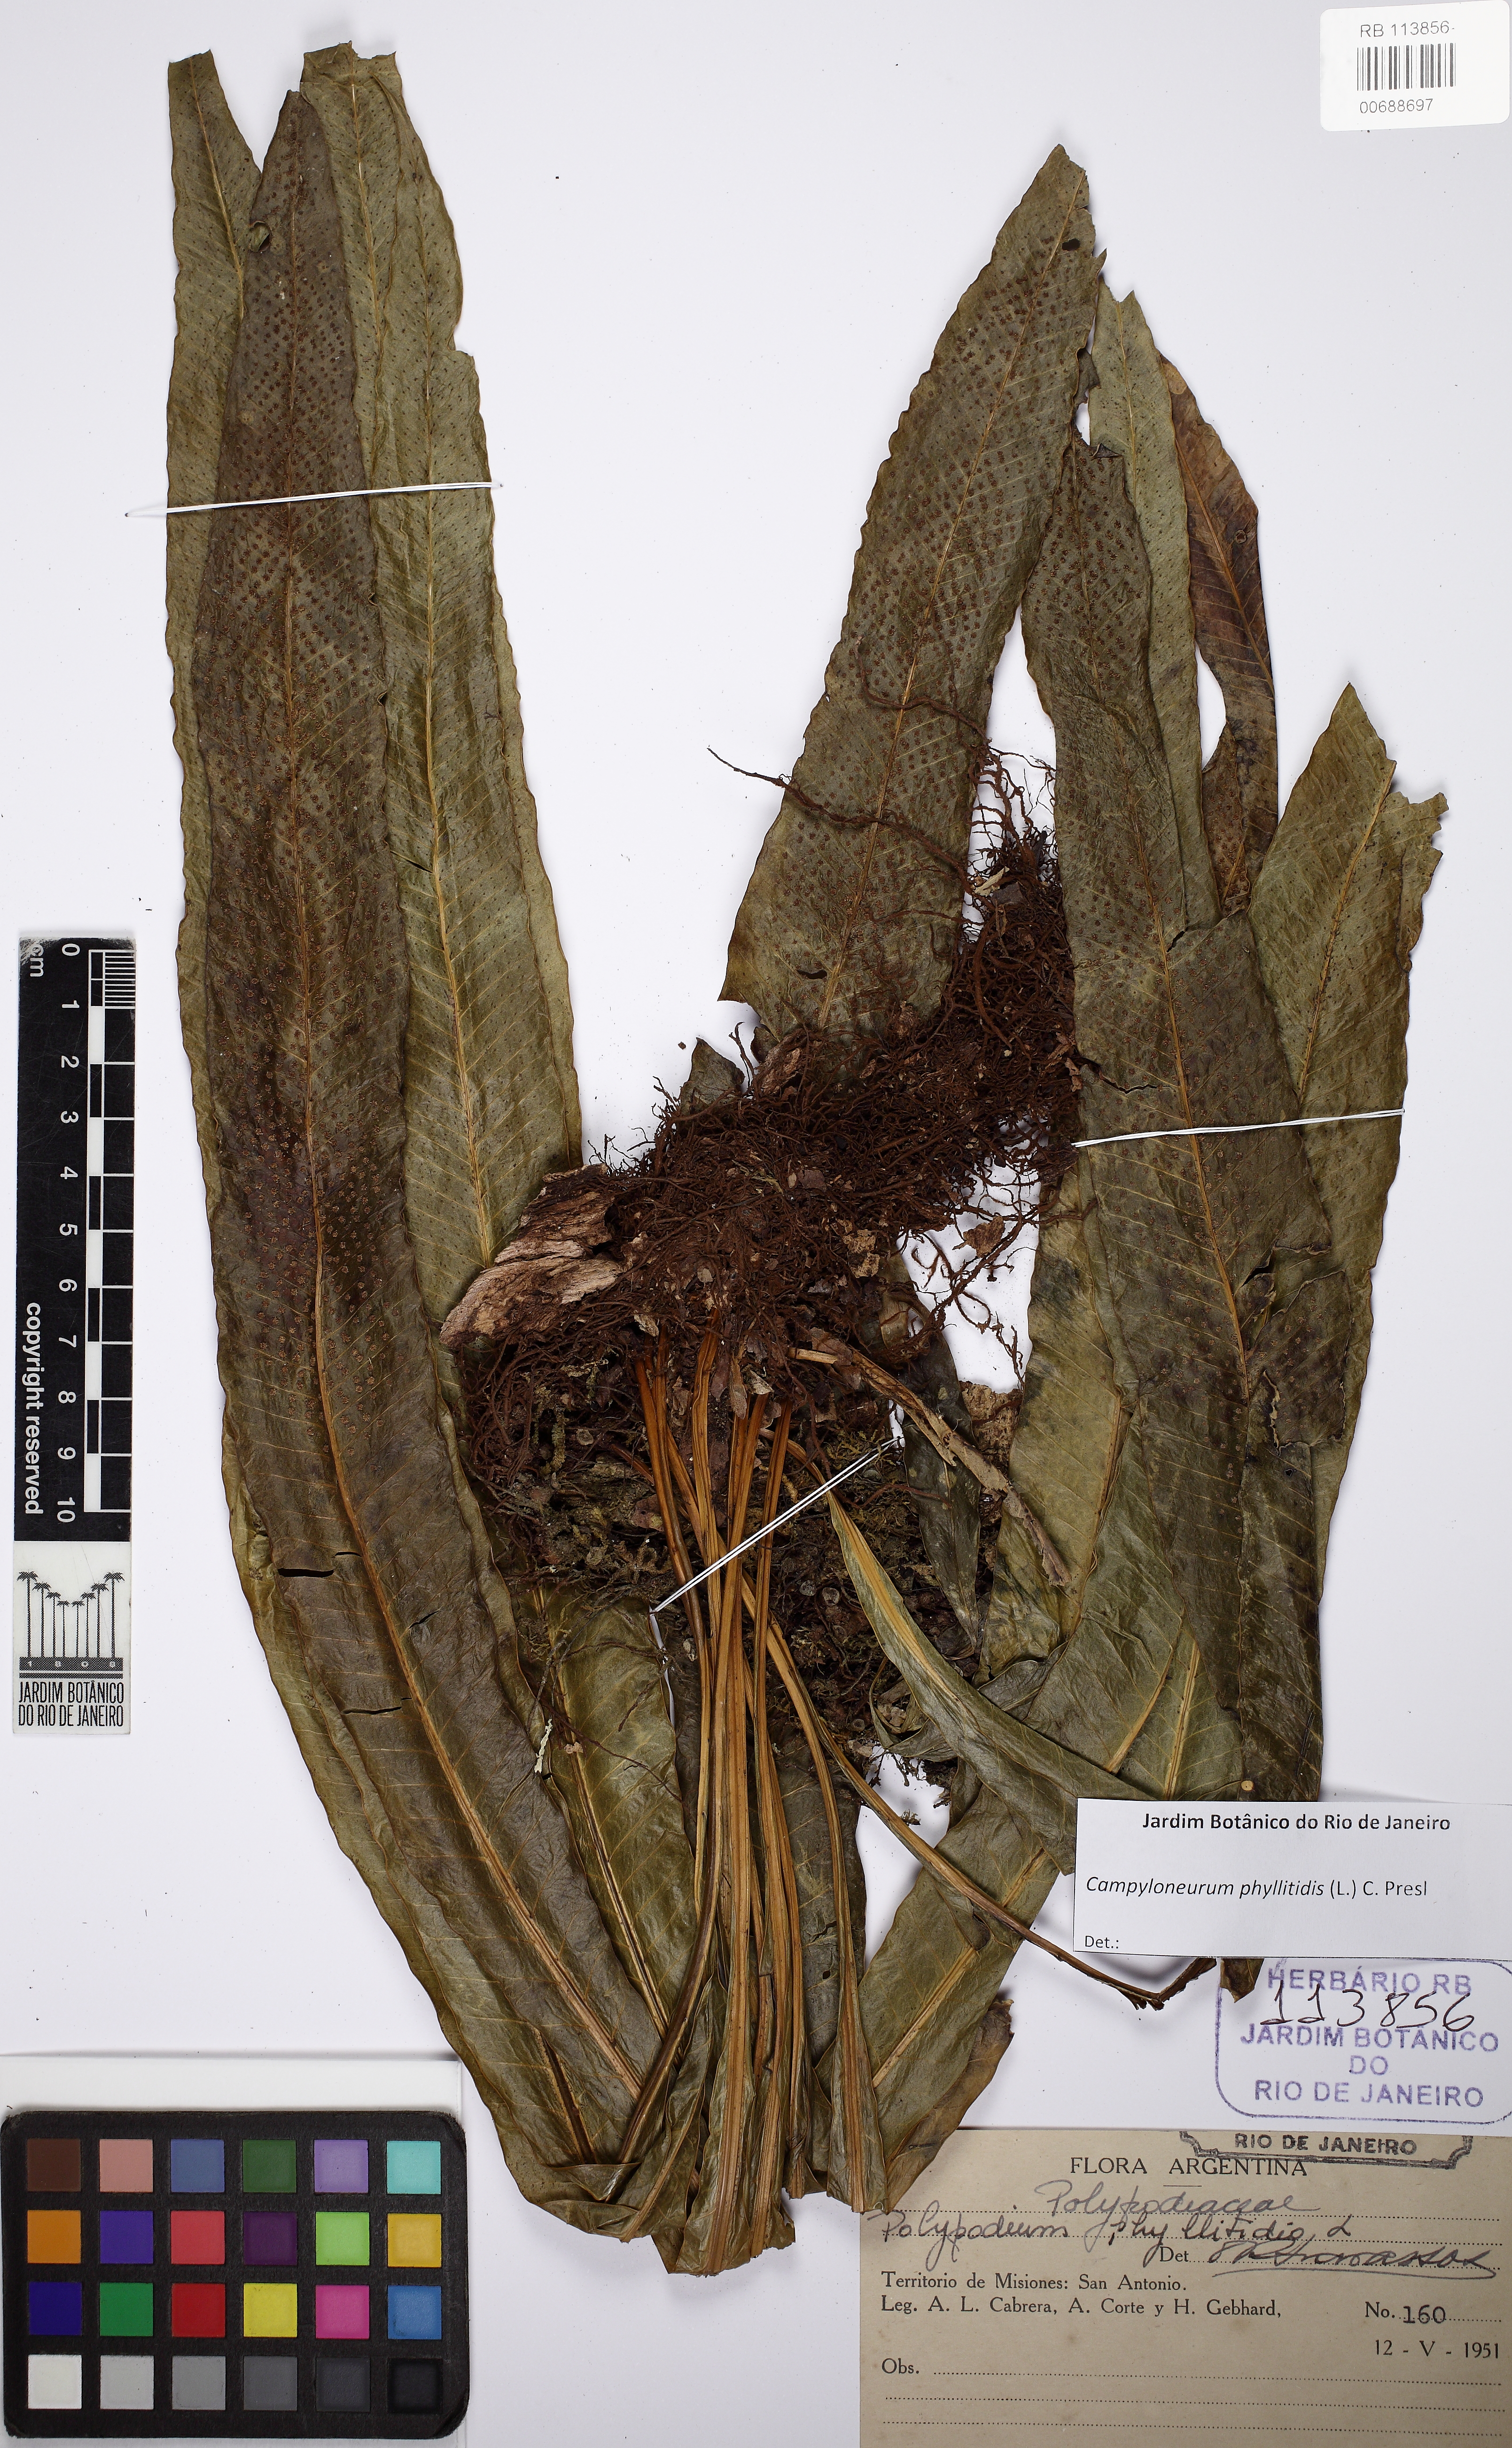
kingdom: Plantae
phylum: Tracheophyta
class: Polypodiopsida
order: Polypodiales
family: Polypodiaceae
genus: Campyloneurum
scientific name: Campyloneurum phyllitidis
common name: Cow-tongue fern
